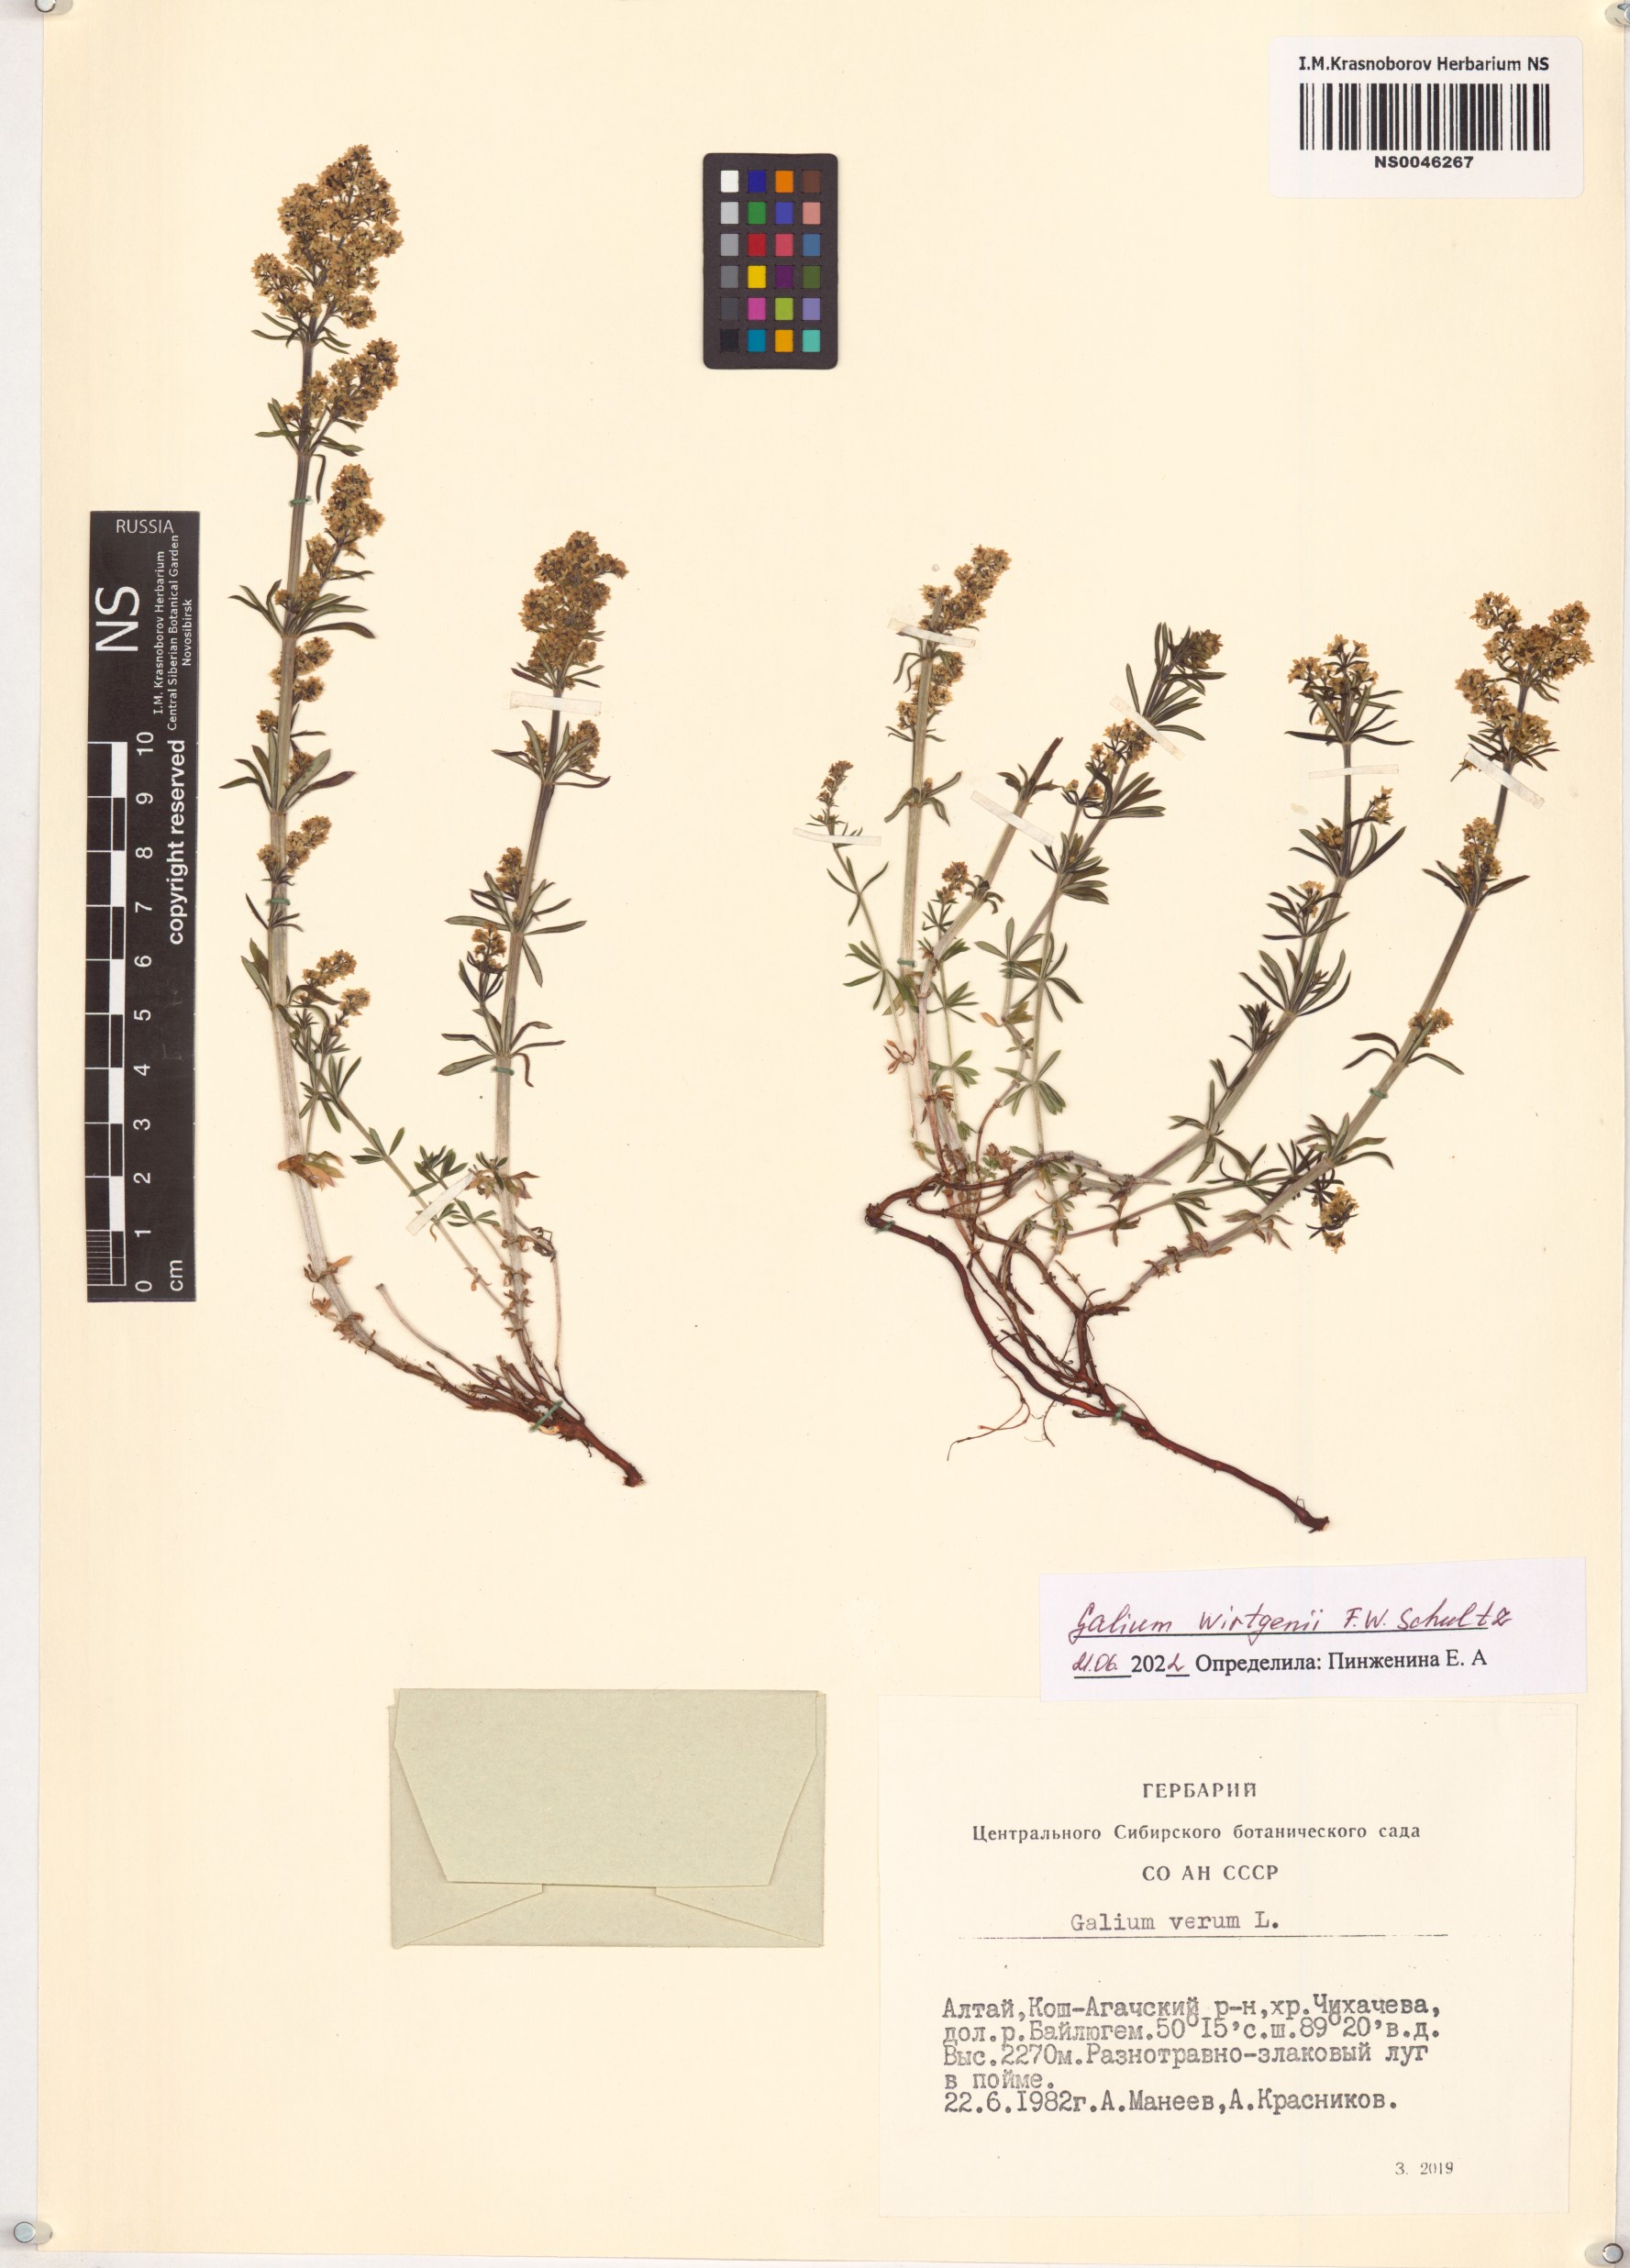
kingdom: Plantae
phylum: Tracheophyta
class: Magnoliopsida
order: Gentianales
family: Rubiaceae
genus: Galium
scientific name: Galium verum
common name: Lady's bedstraw
